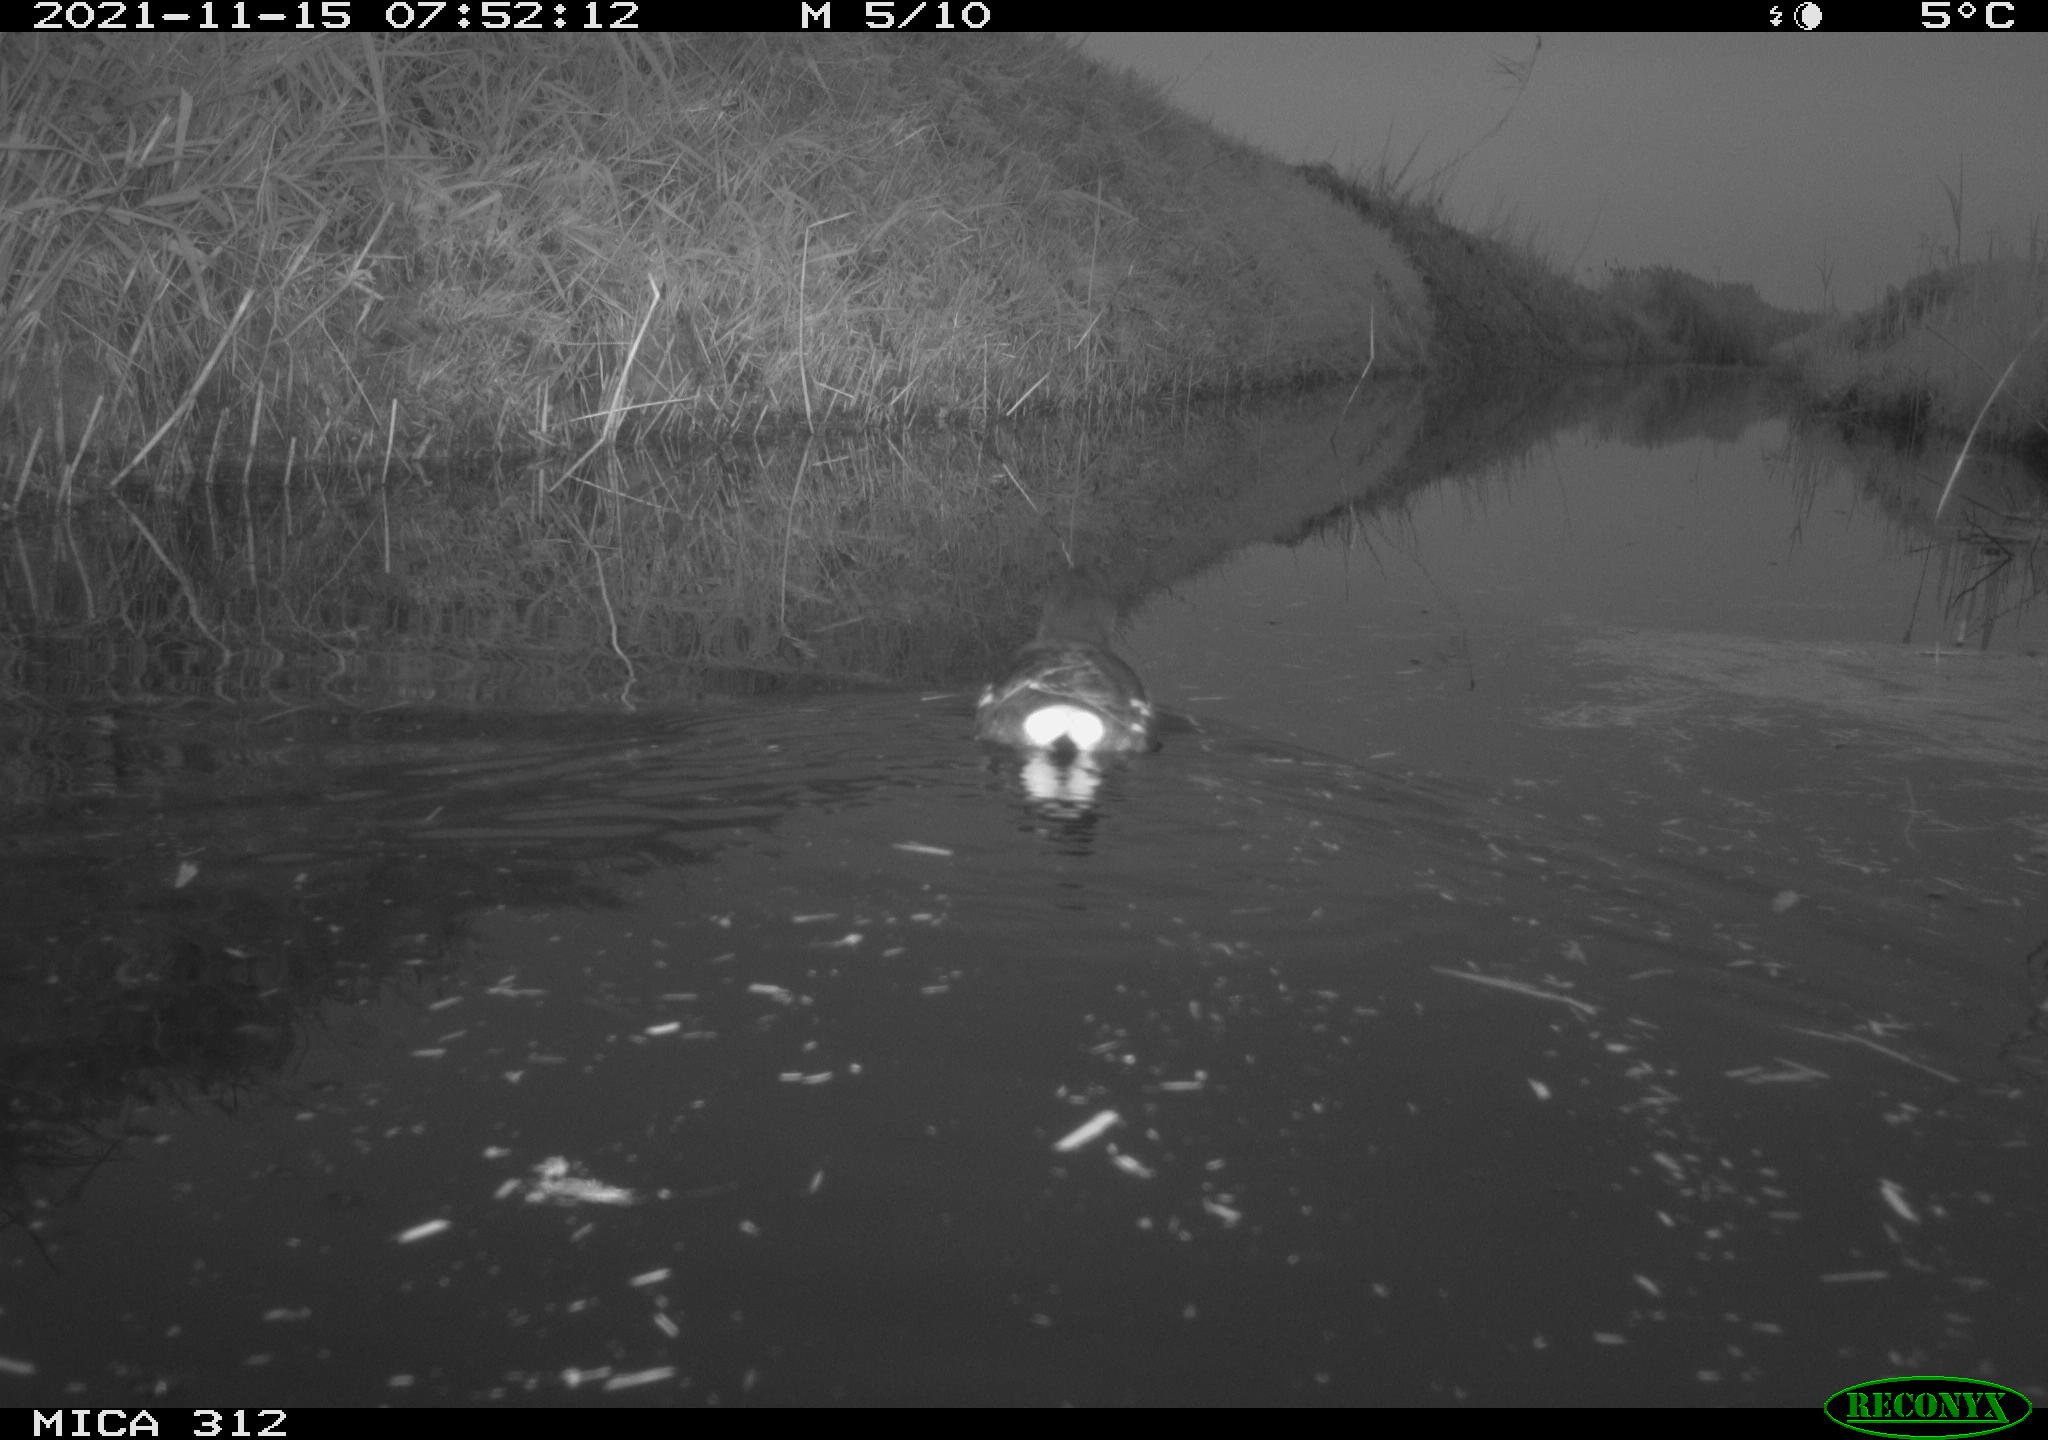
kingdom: Animalia
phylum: Chordata
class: Aves
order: Anseriformes
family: Anatidae
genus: Anas
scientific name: Anas
